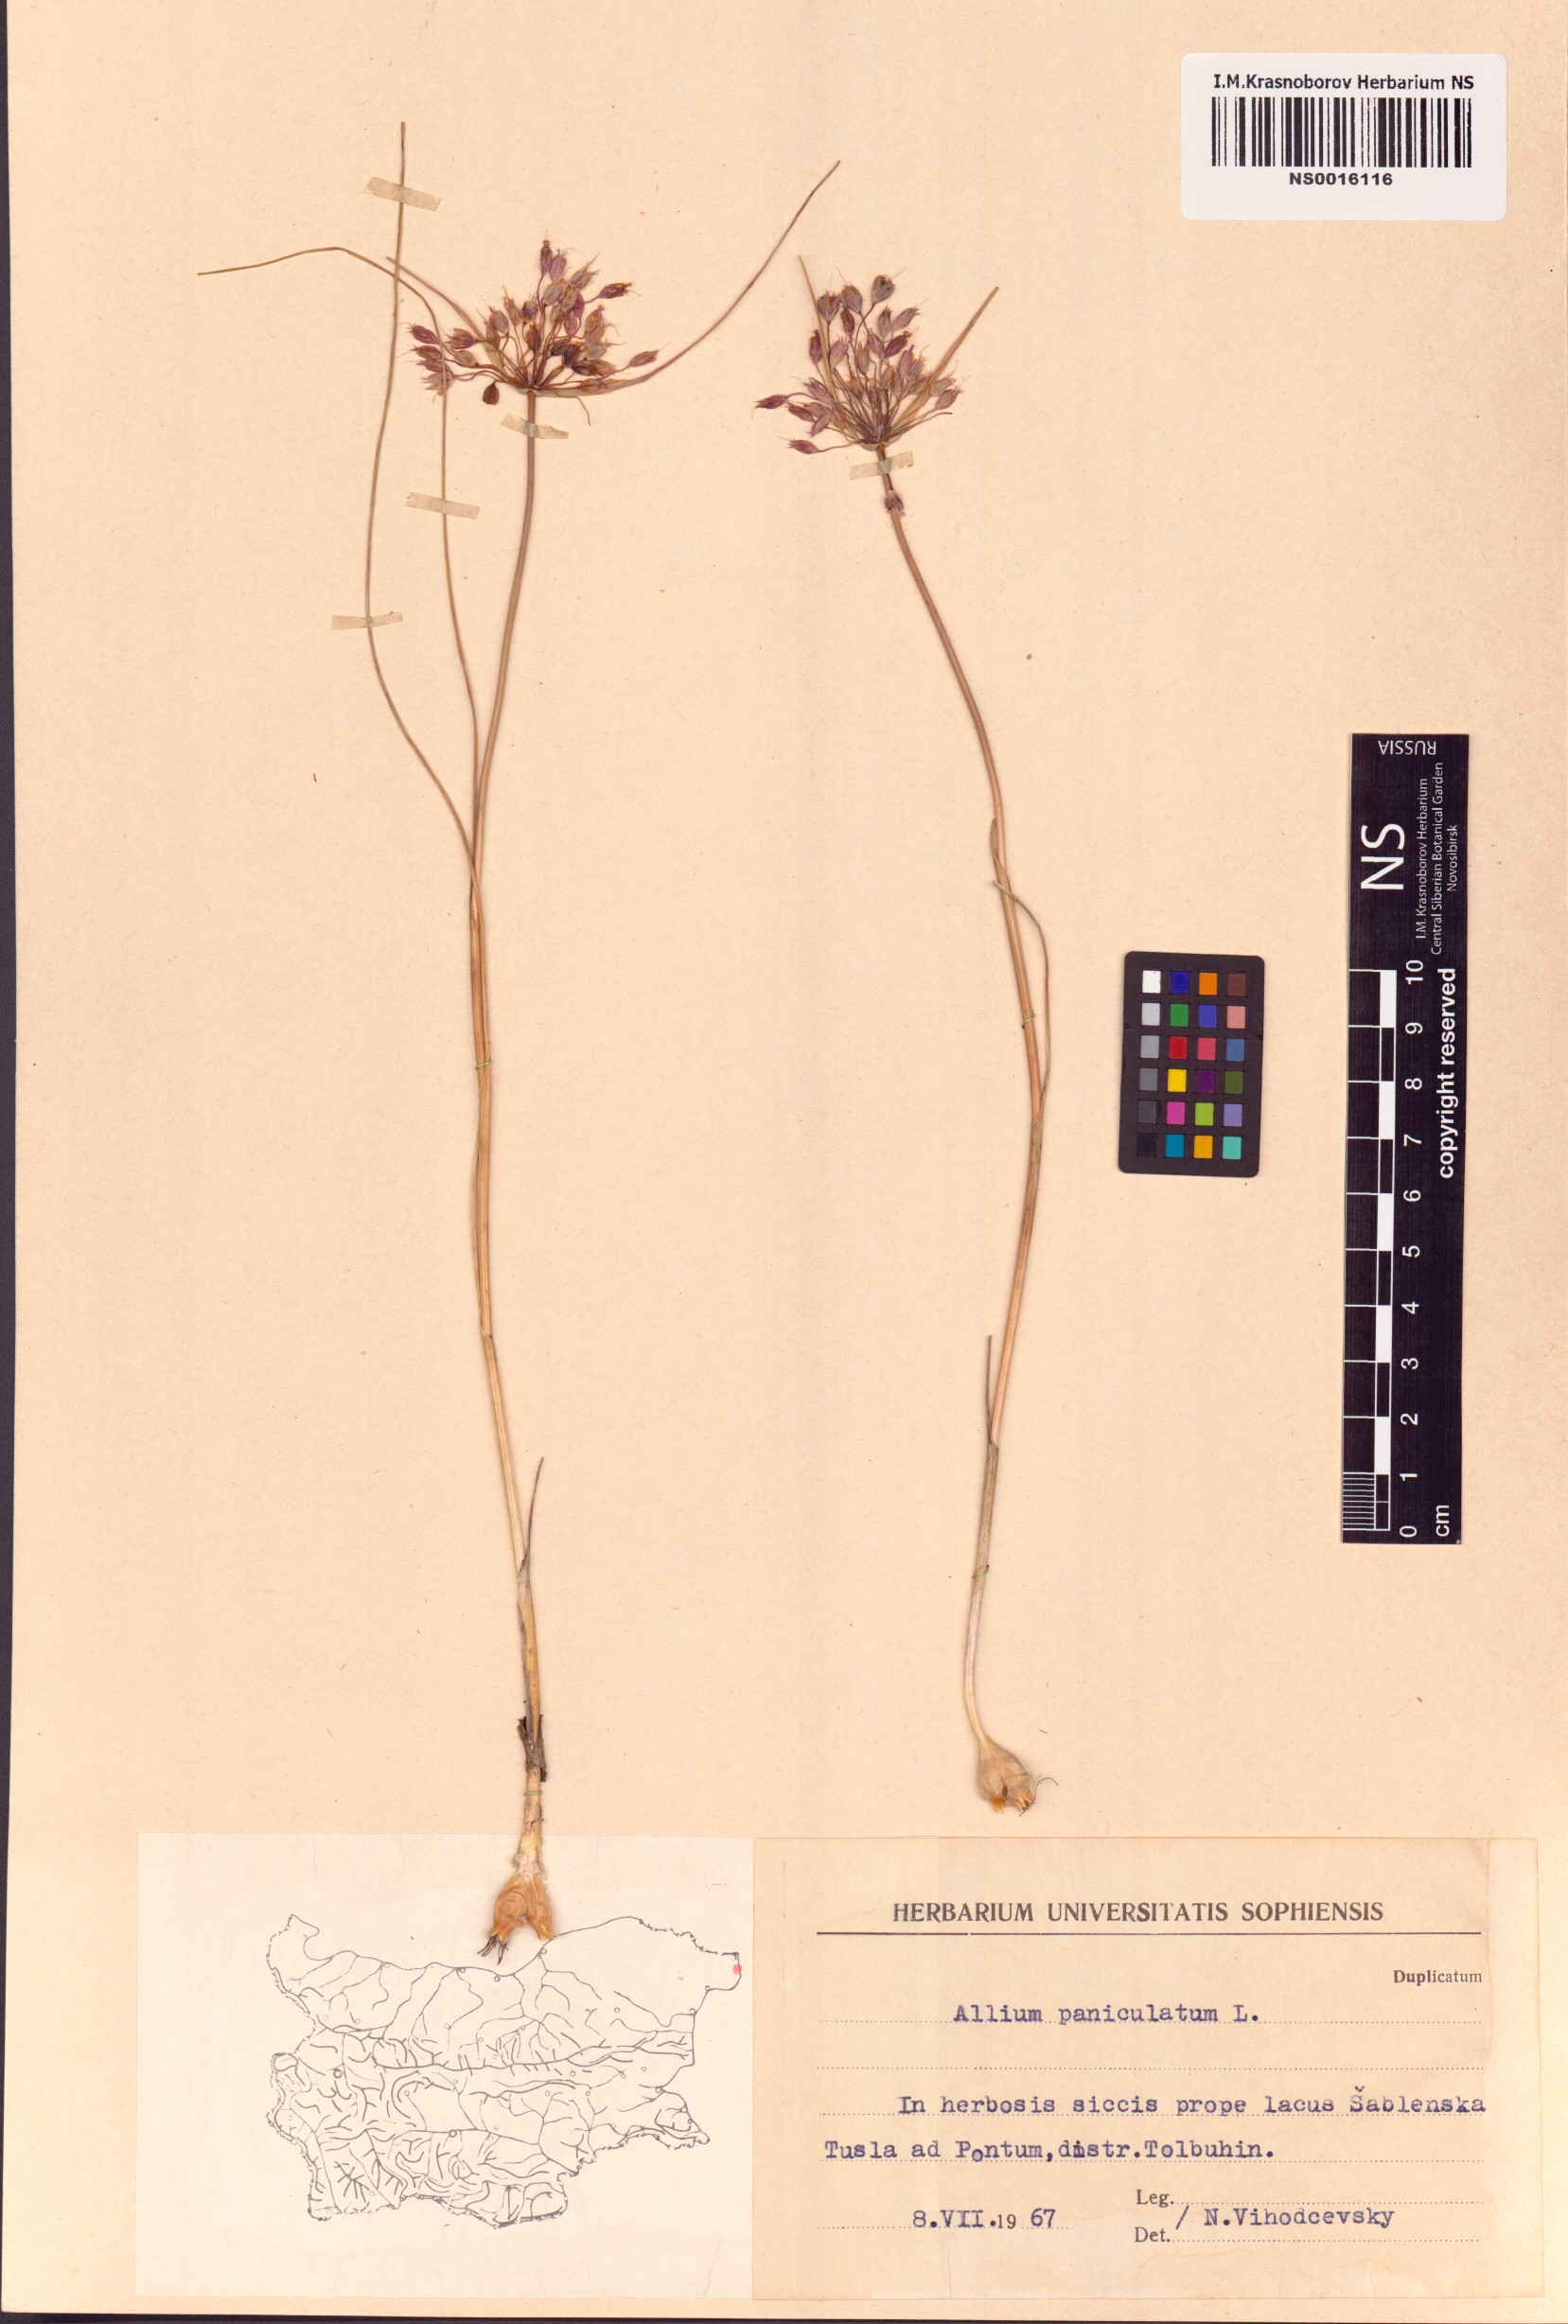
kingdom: Plantae
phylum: Tracheophyta
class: Liliopsida
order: Asparagales
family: Amaryllidaceae
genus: Allium
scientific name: Allium paniculatum
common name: Pale garlic
